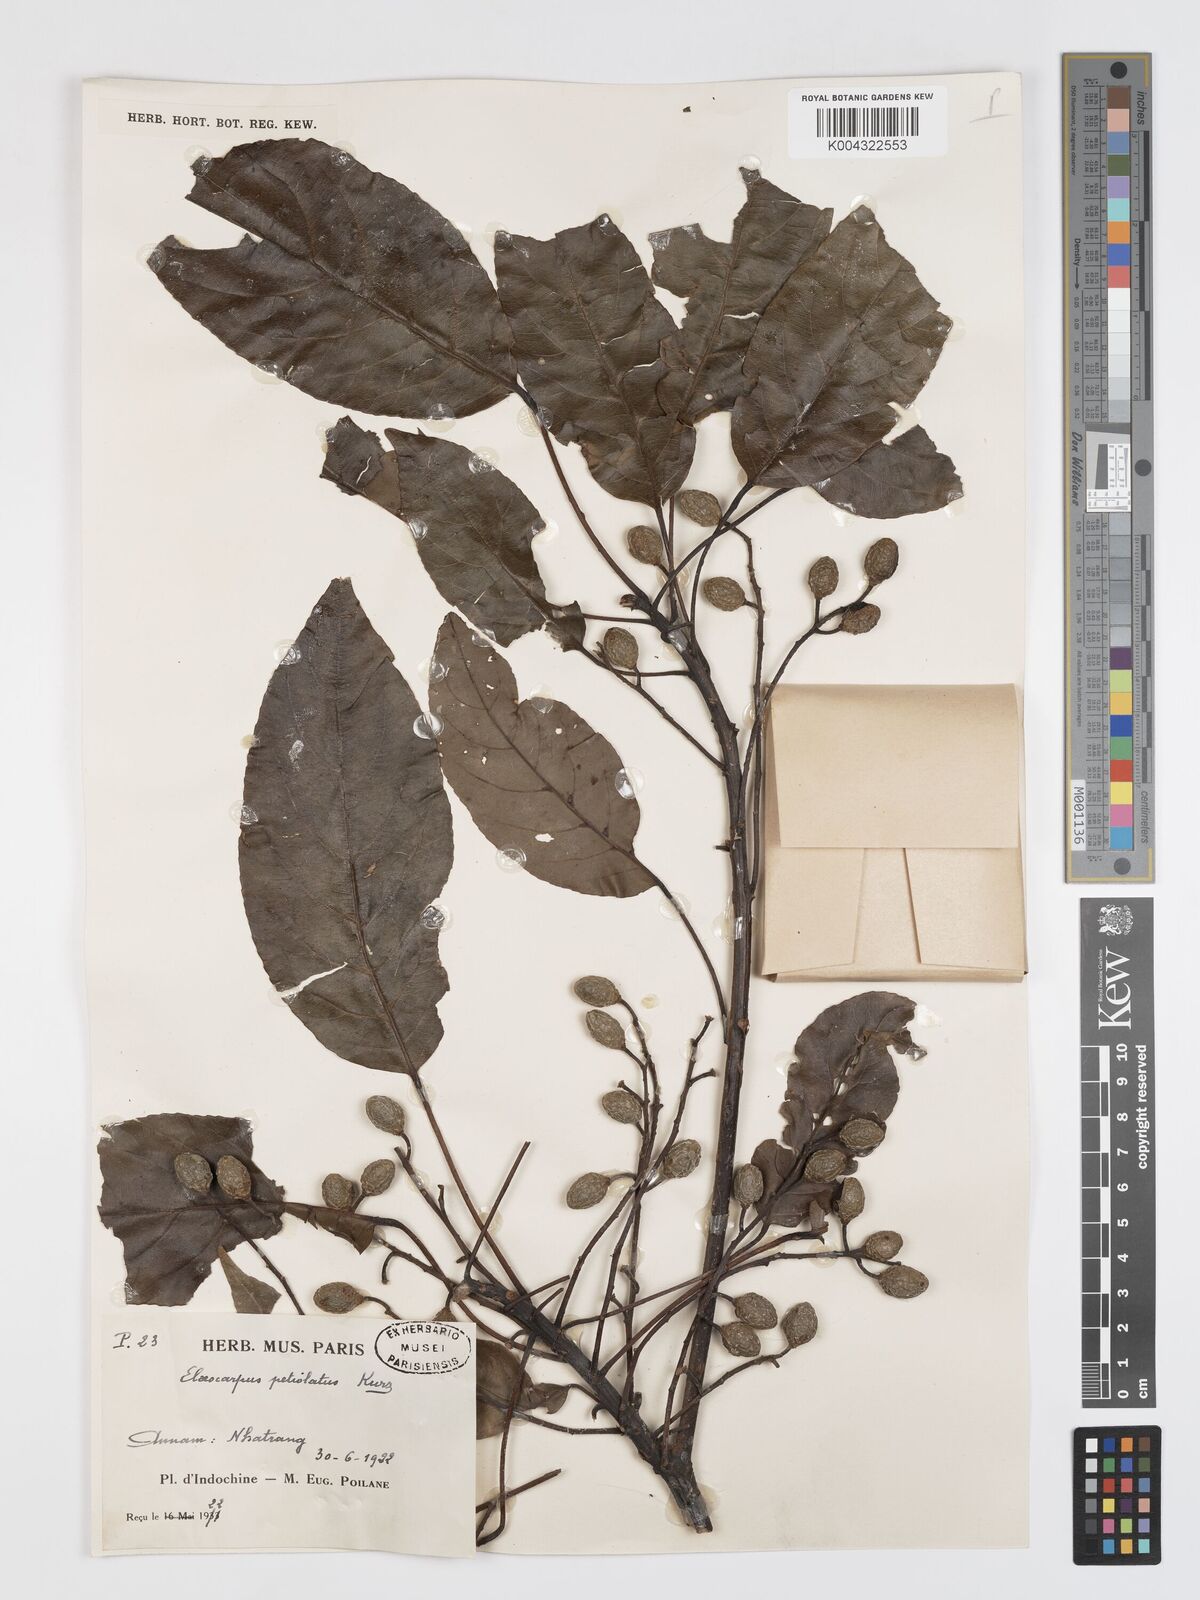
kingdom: Plantae
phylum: Tracheophyta
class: Magnoliopsida
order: Oxalidales
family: Elaeocarpaceae
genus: Elaeocarpus
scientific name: Elaeocarpus petiolatus
